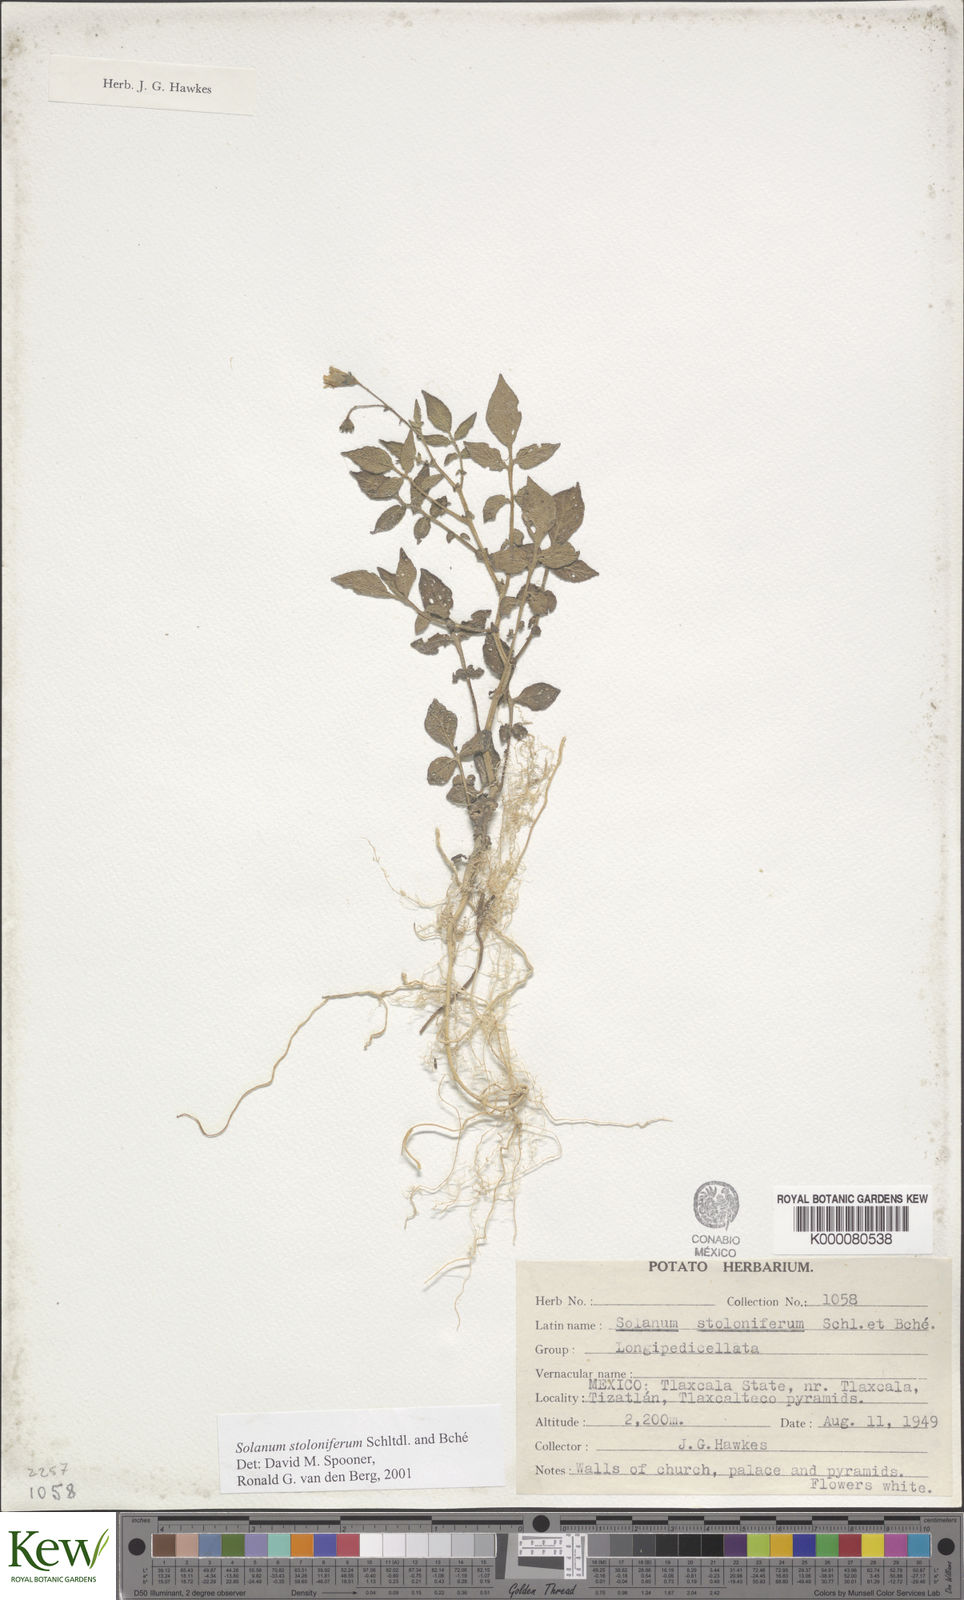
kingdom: Plantae
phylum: Tracheophyta
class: Magnoliopsida
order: Solanales
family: Solanaceae
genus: Solanum
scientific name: Solanum stoloniferum
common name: Fendler's nighshade
